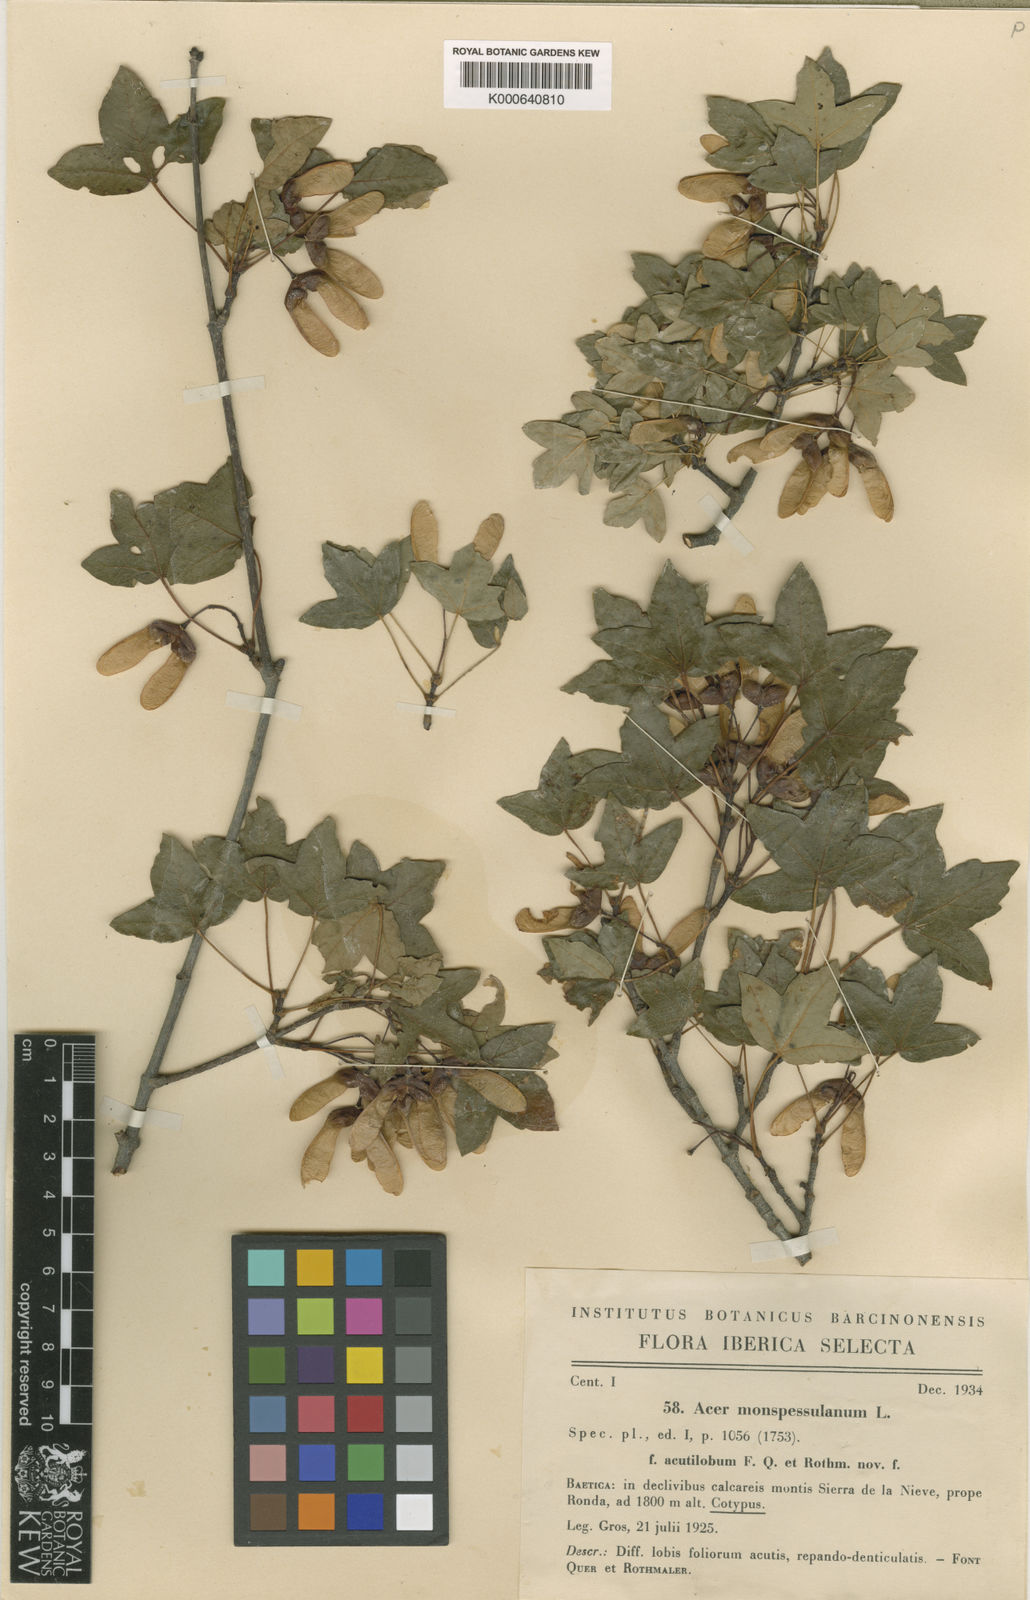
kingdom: Plantae
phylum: Tracheophyta
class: Magnoliopsida
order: Sapindales
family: Sapindaceae
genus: Acer
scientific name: Acer monspessulanum
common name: Montpellier maple
